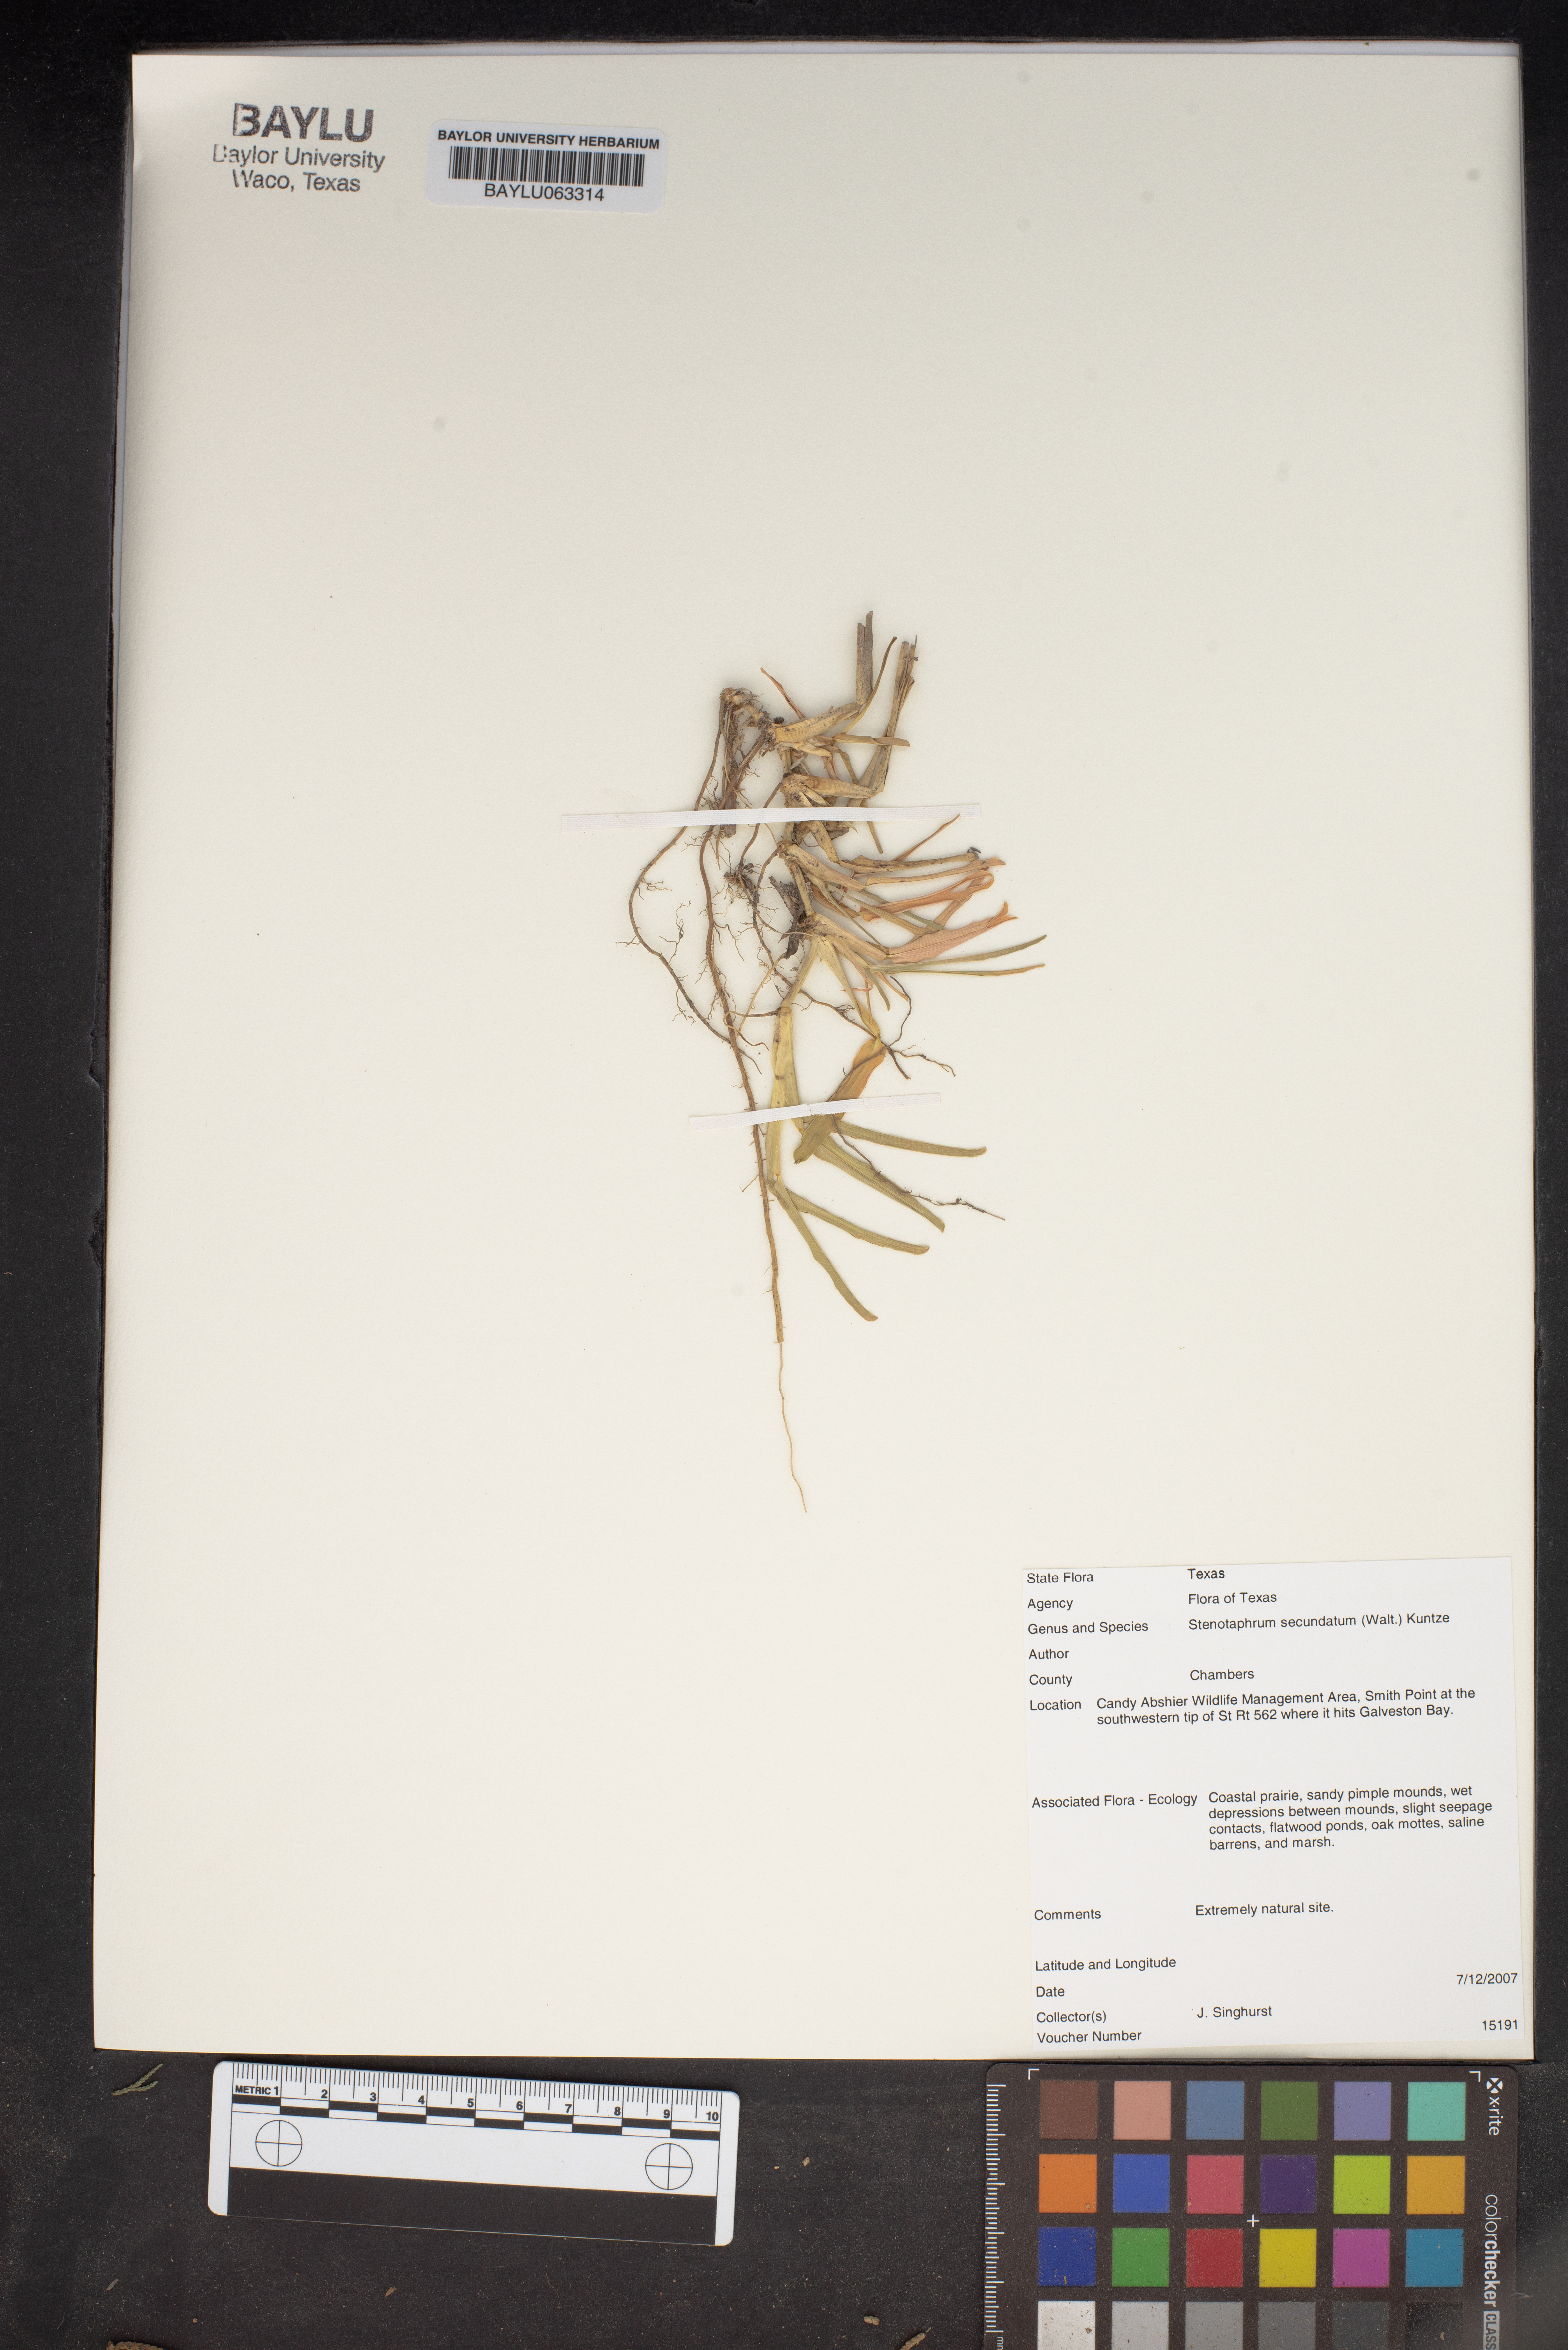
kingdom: Plantae
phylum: Tracheophyta
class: Liliopsida
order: Poales
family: Poaceae
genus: Stenotaphrum
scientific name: Stenotaphrum secundatum
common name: St. augustine grass
